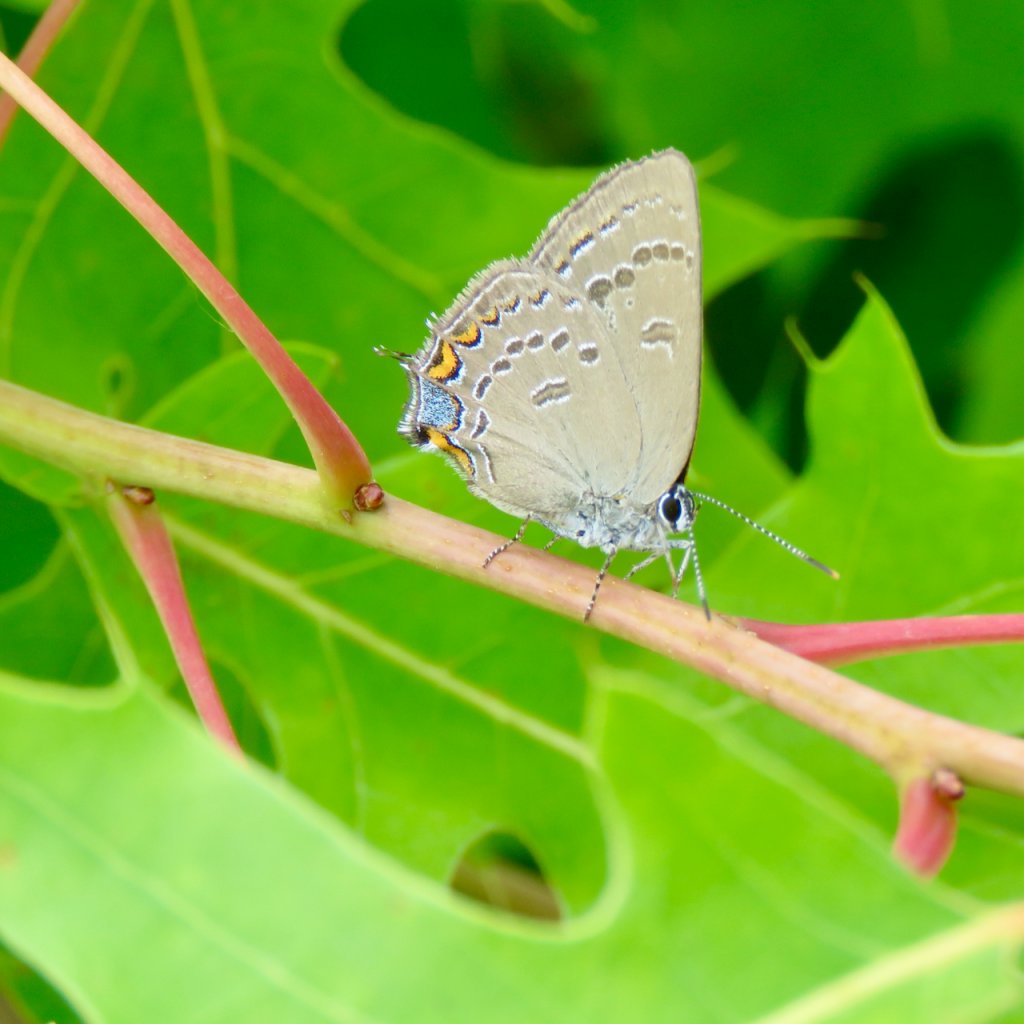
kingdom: Animalia
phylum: Arthropoda
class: Insecta
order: Lepidoptera
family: Lycaenidae
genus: Satyrium
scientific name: Satyrium edwardsii
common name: Edwards' Hairstreak
